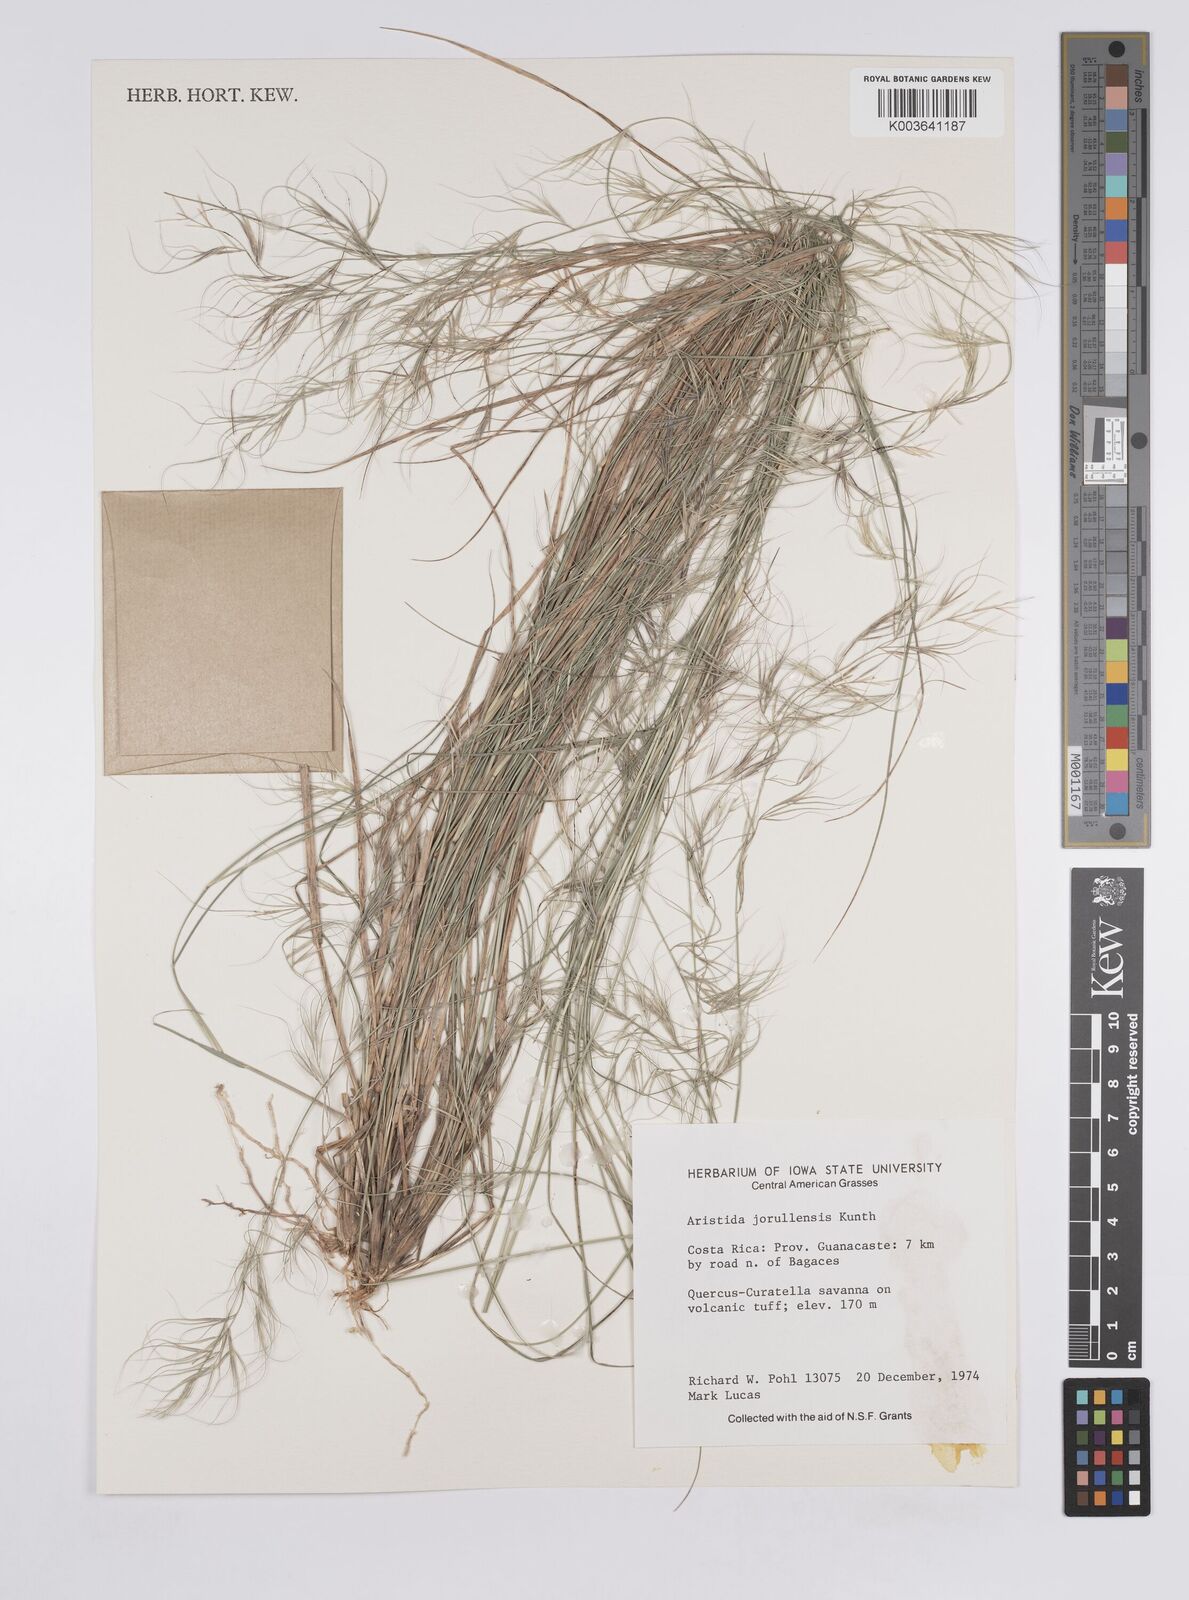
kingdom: Plantae
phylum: Tracheophyta
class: Liliopsida
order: Poales
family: Poaceae
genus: Aristida
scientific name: Aristida jorullensis
